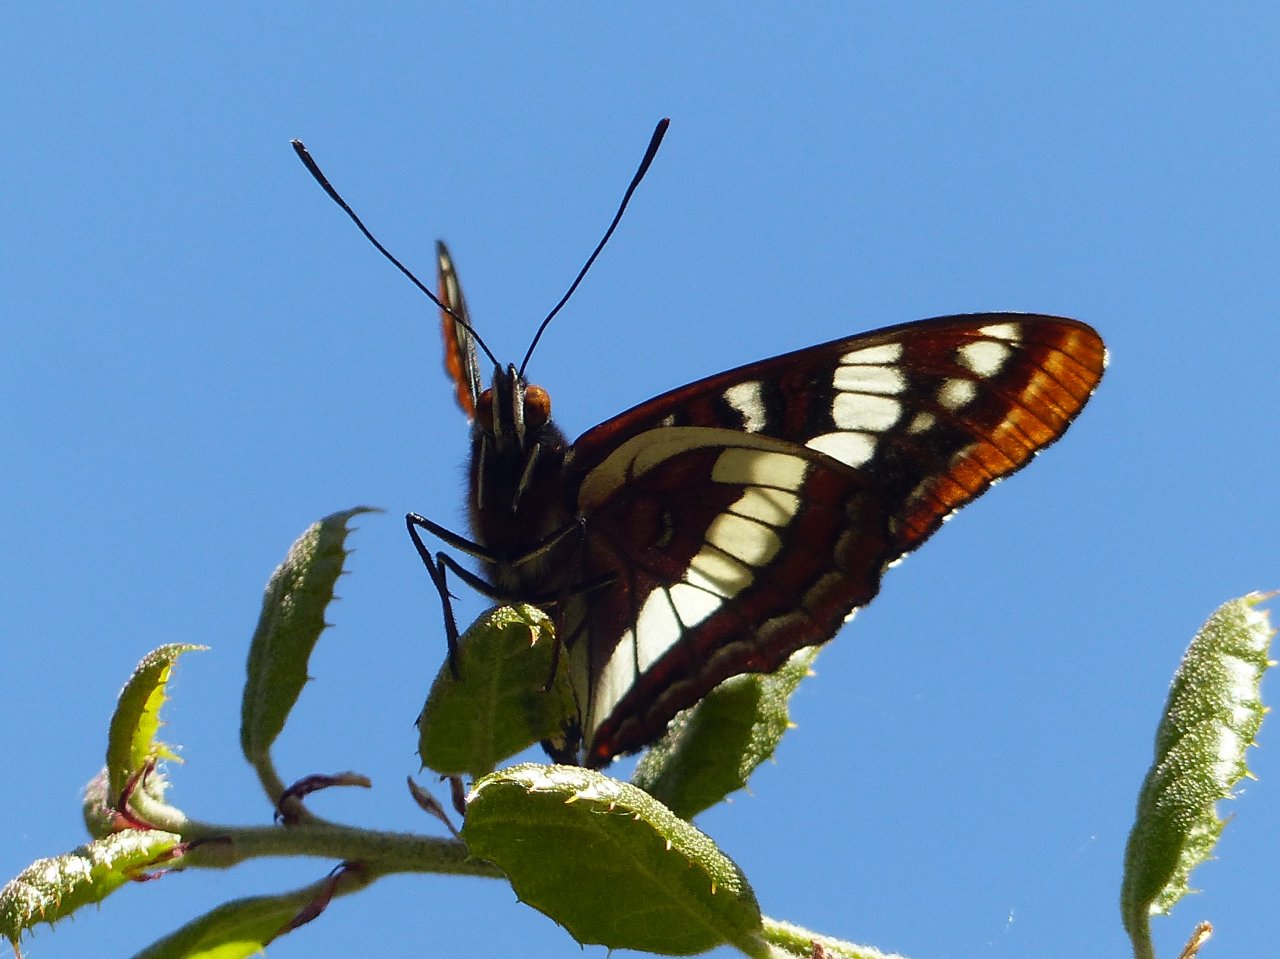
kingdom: Animalia
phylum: Arthropoda
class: Insecta
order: Lepidoptera
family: Nymphalidae
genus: Limenitis
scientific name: Limenitis lorquini
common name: Lorquin's Admiral
